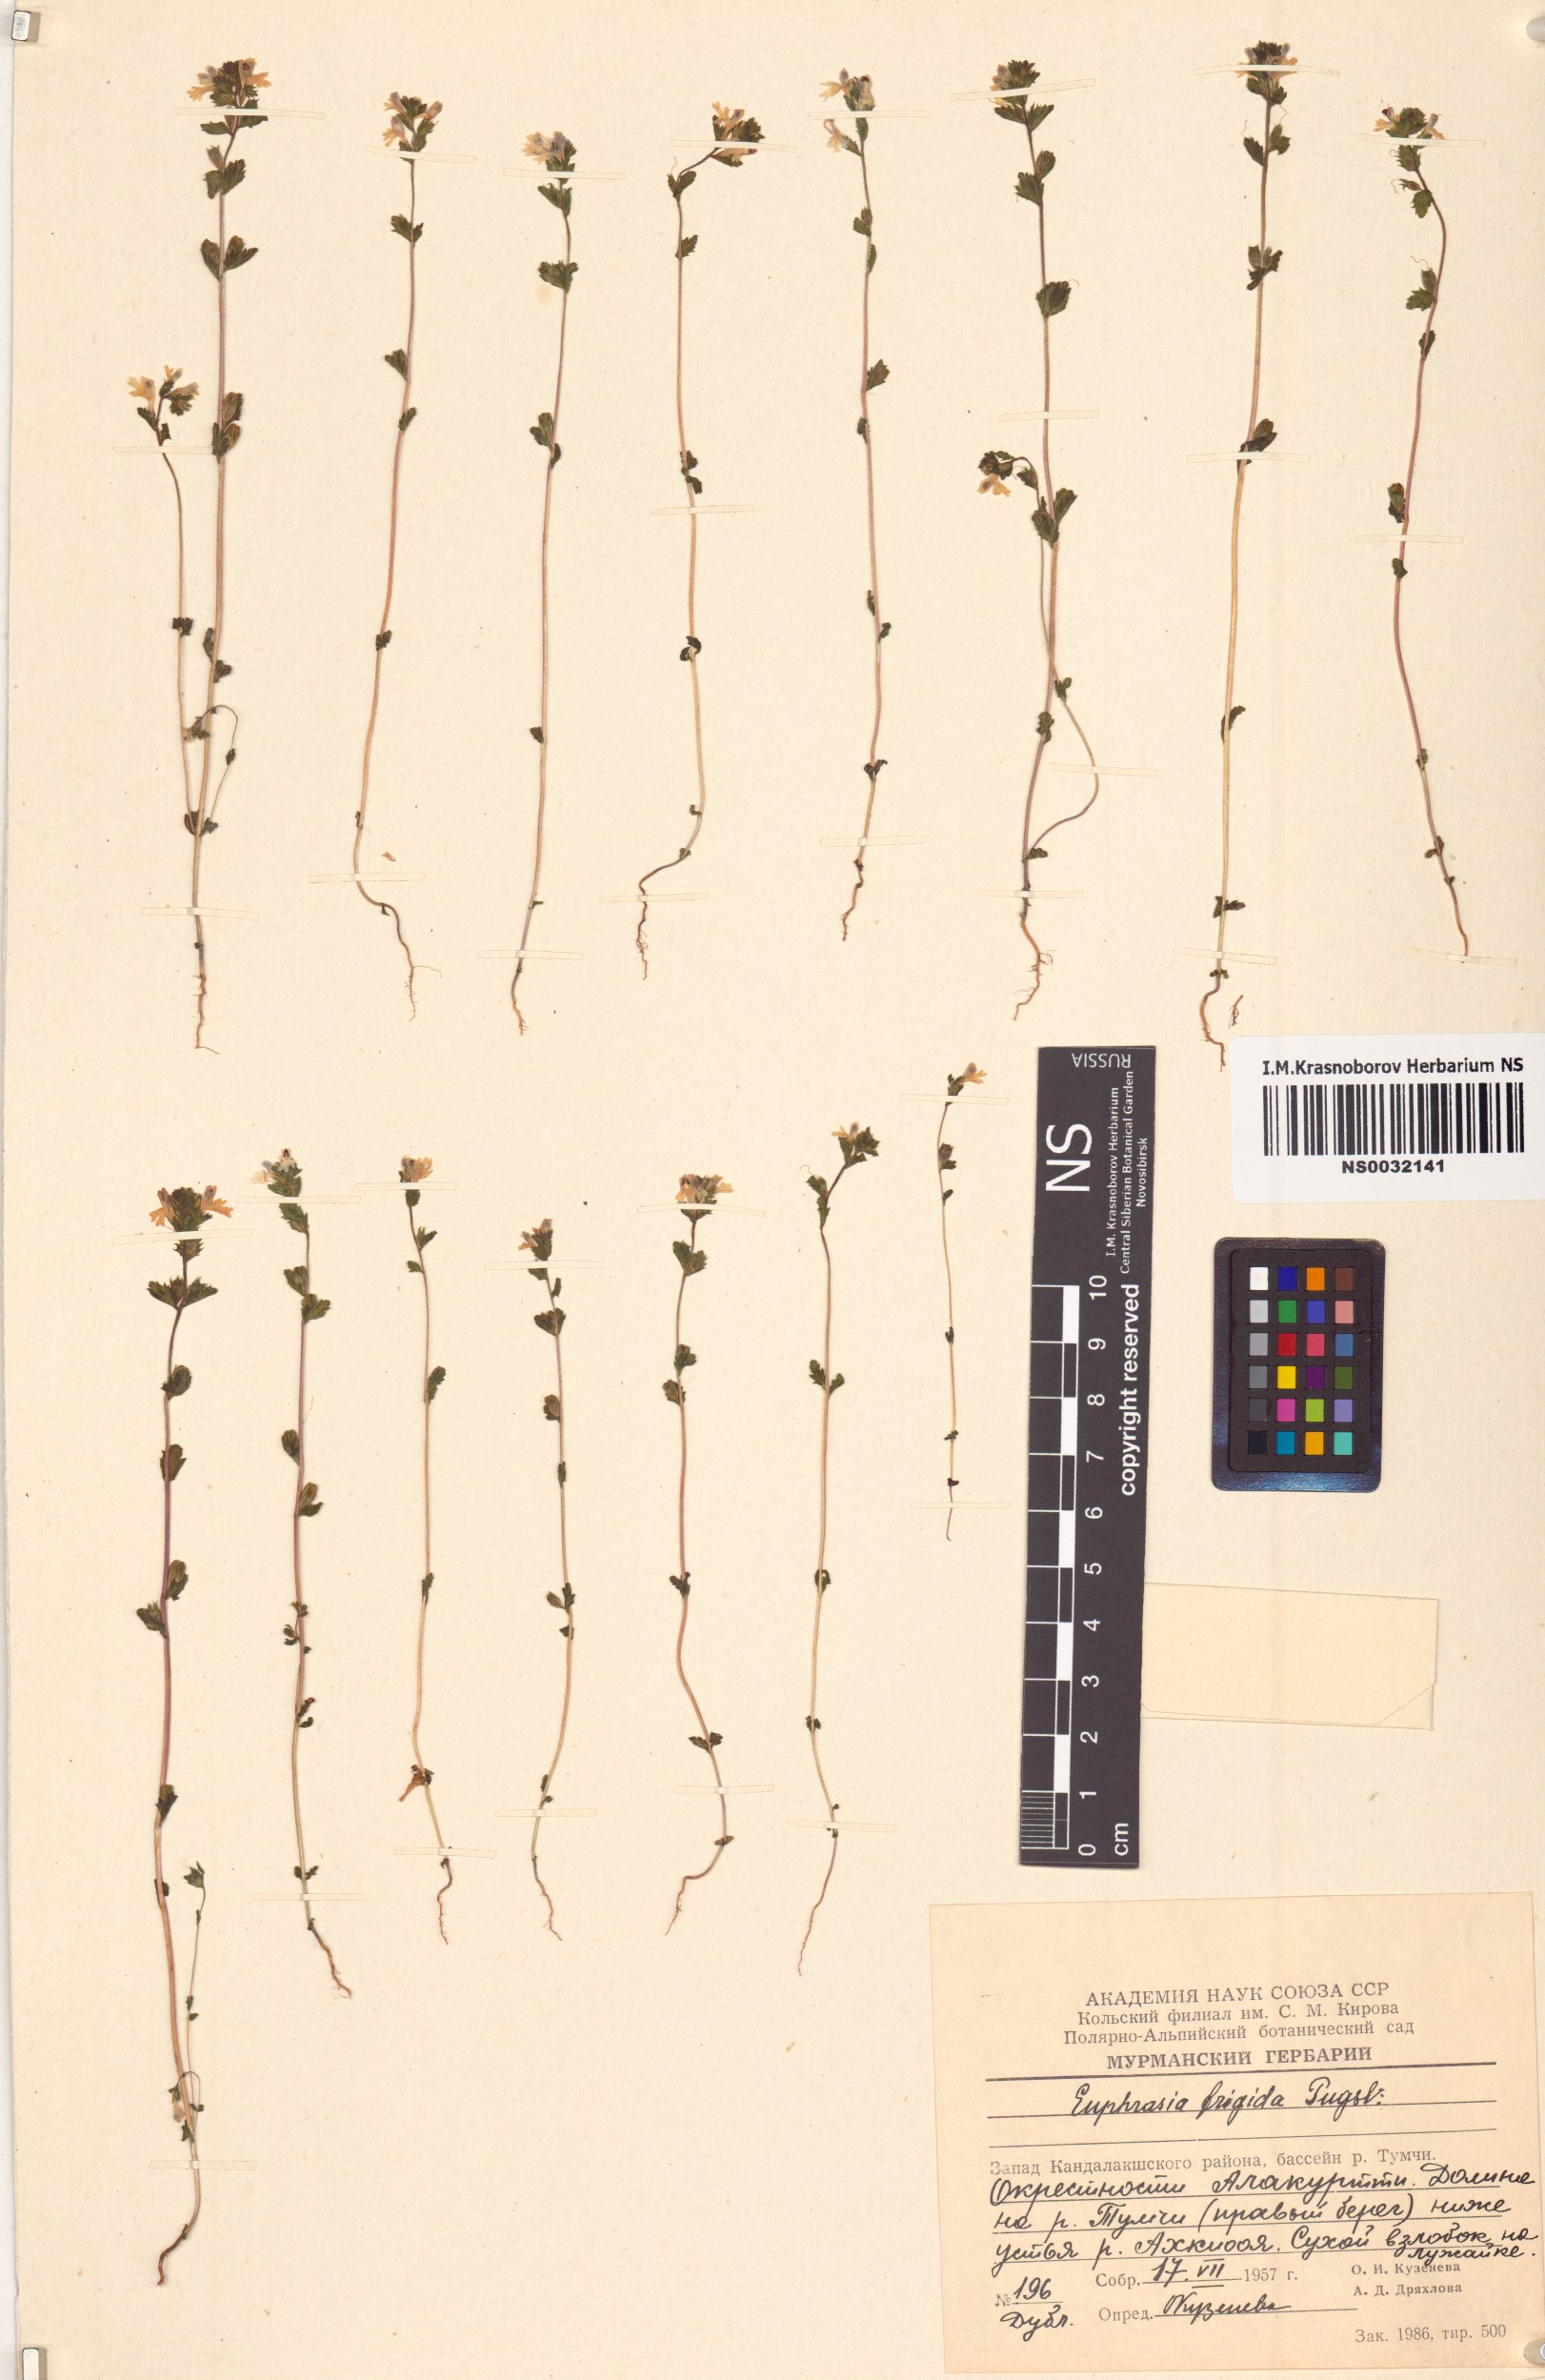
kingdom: Plantae
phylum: Tracheophyta
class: Magnoliopsida
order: Lamiales
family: Orobanchaceae
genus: Euphrasia
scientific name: Euphrasia frigida
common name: An eyebright
